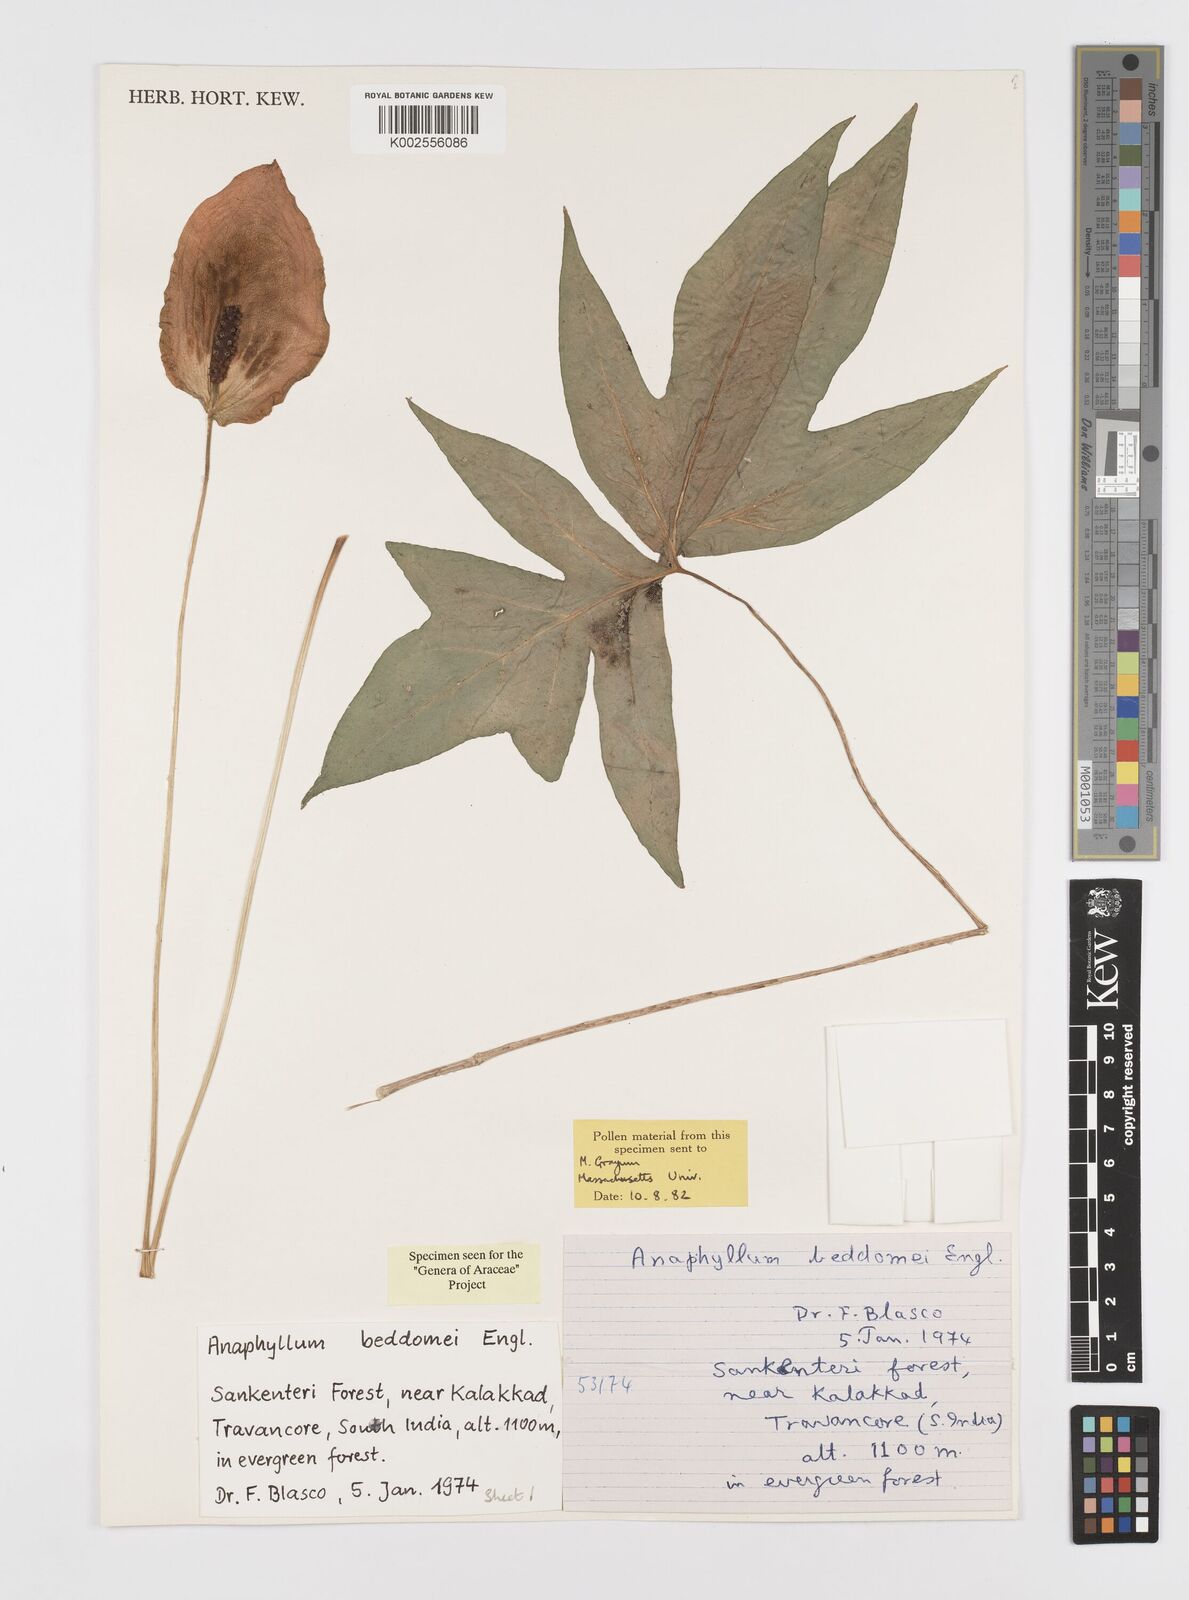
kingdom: Plantae
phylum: Tracheophyta
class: Liliopsida
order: Alismatales
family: Araceae
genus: Anaphyllum
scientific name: Anaphyllum beddomei
